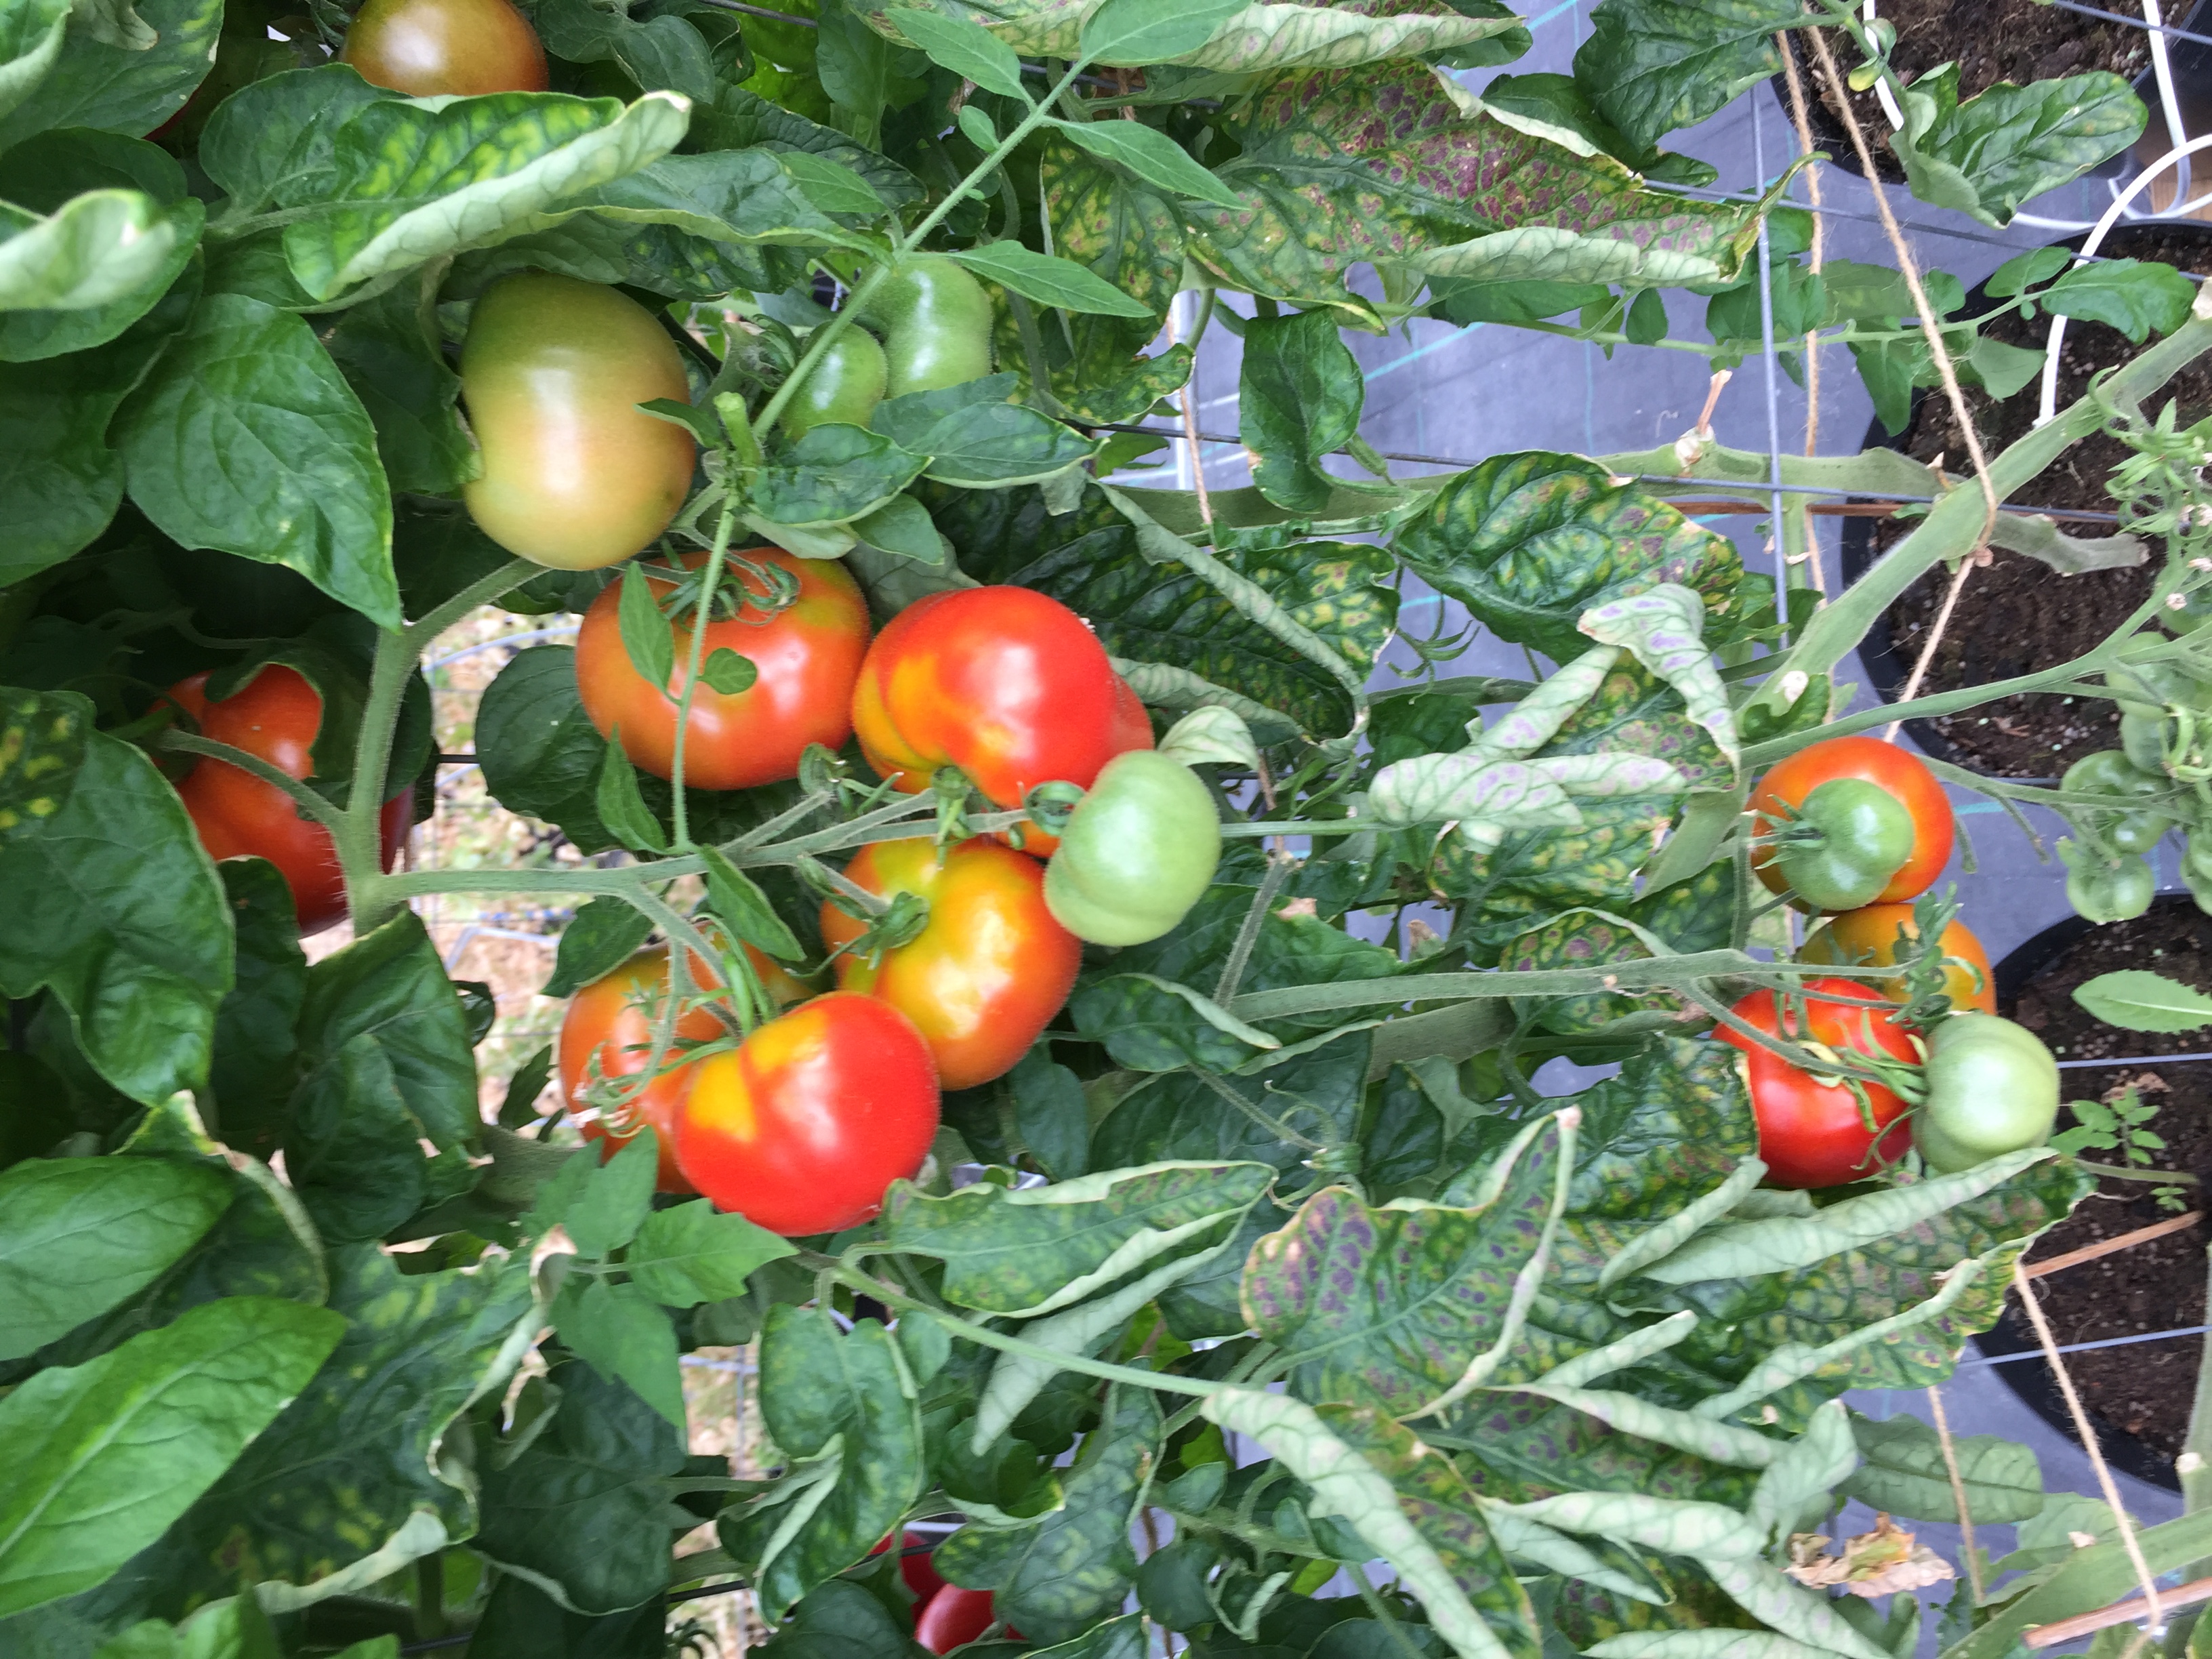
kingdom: Plantae
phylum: Tracheophyta
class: Magnoliopsida
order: Solanales
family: Solanaceae
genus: Solanum
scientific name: Solanum lycopersicum
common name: Garden tomato
